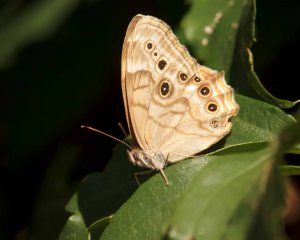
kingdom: Animalia
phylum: Arthropoda
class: Insecta
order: Lepidoptera
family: Nymphalidae
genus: Lethe
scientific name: Lethe anthedon
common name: Northern Pearly-Eye
